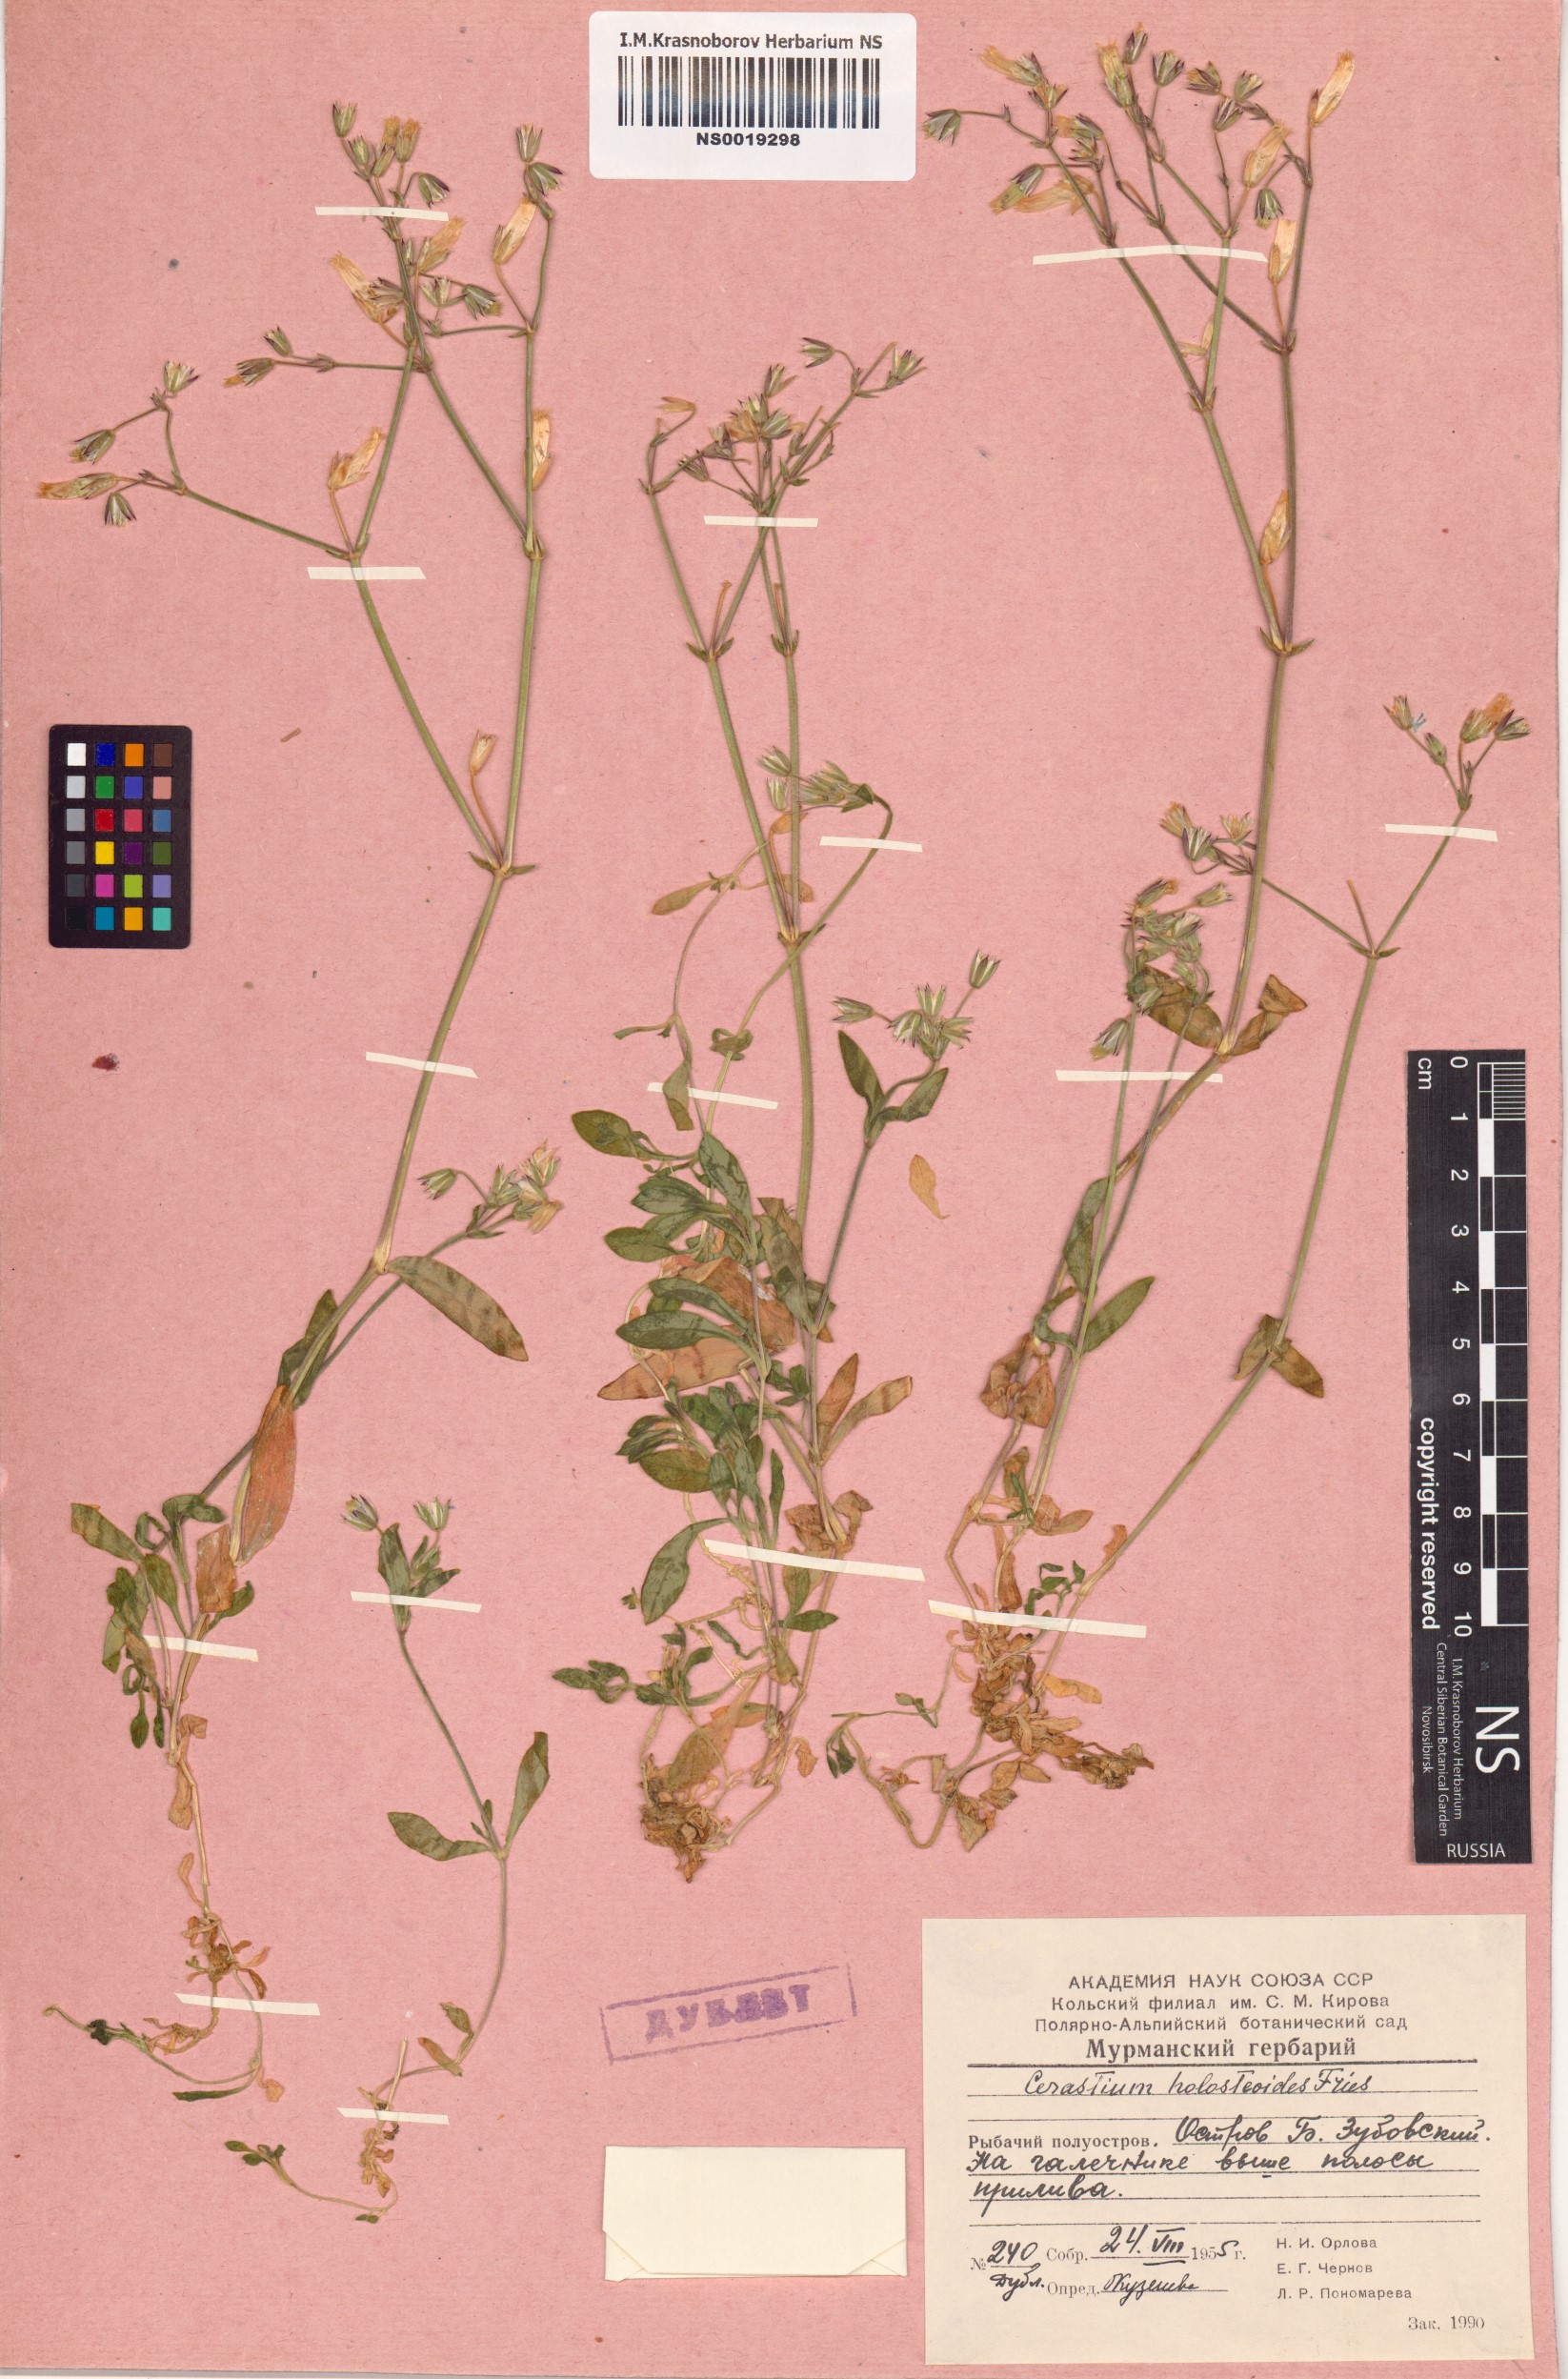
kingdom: Plantae
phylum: Tracheophyta
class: Magnoliopsida
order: Caryophyllales
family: Caryophyllaceae
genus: Cerastium
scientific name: Cerastium holosteoides
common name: Big chickweed
